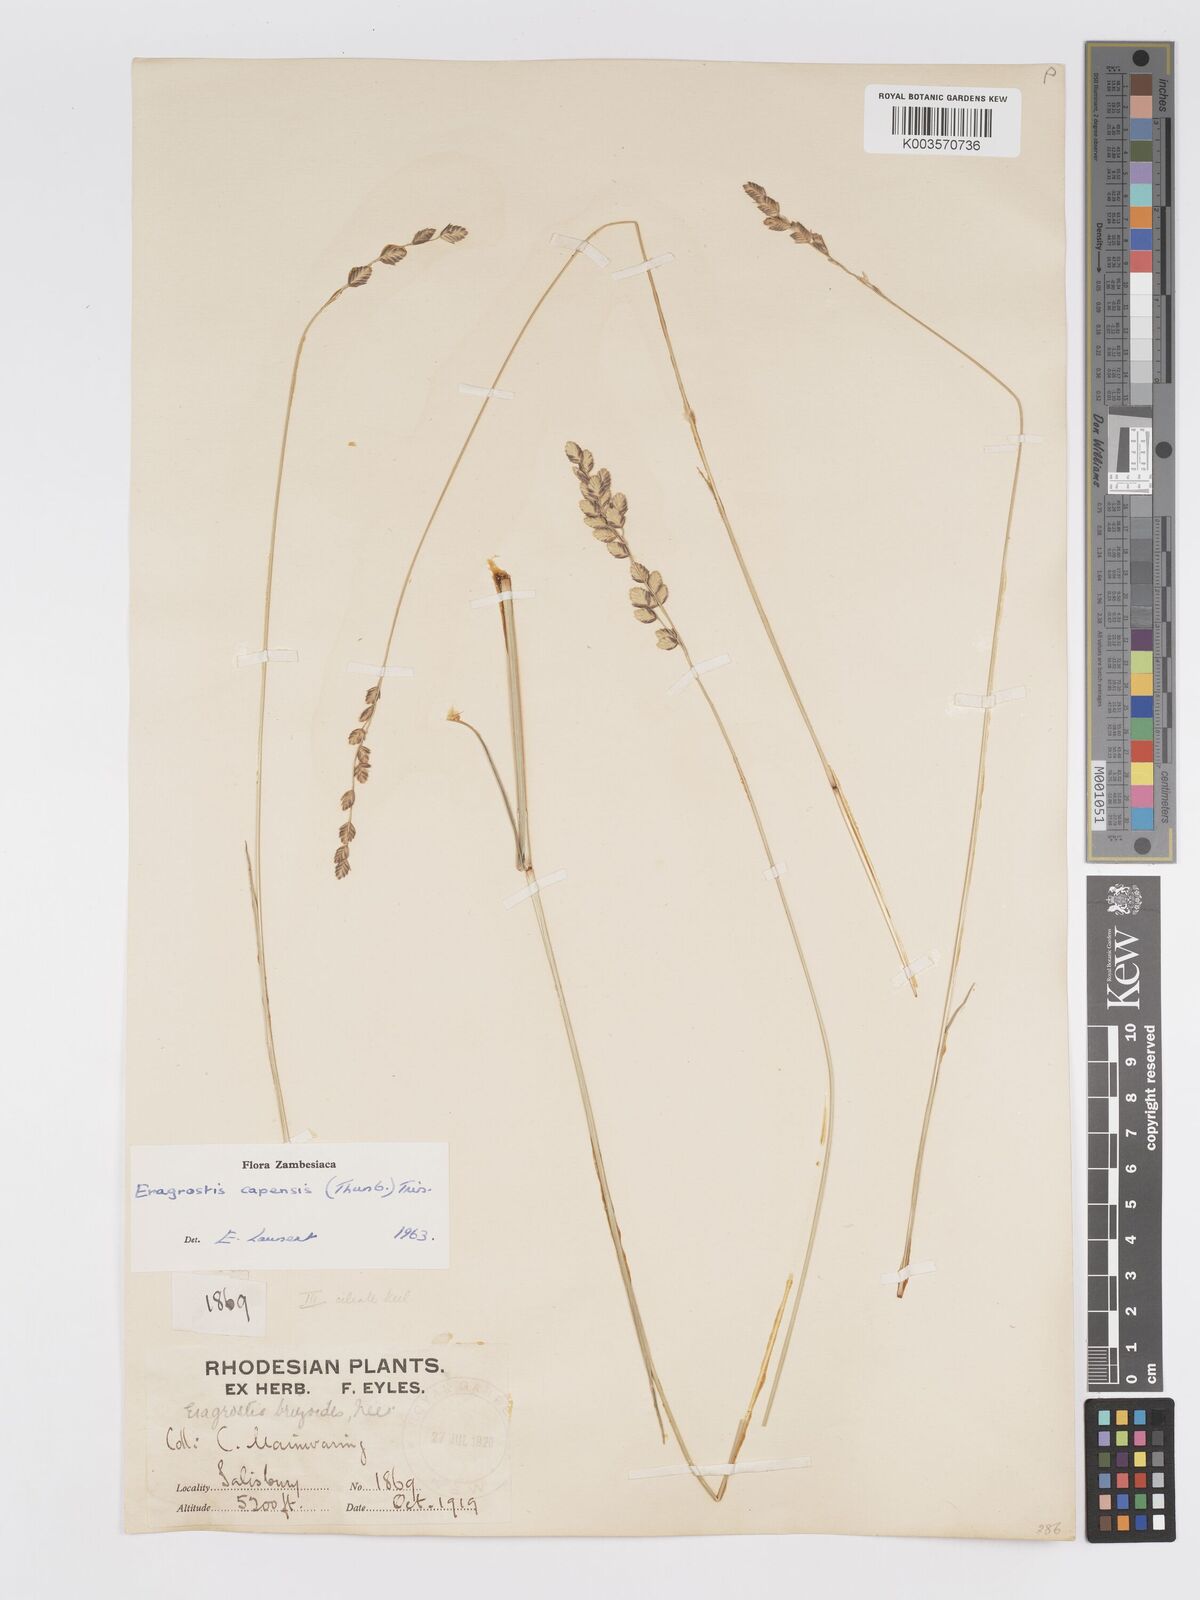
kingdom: Plantae
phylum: Tracheophyta
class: Liliopsida
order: Poales
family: Poaceae
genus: Eragrostis
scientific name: Eragrostis capensis
